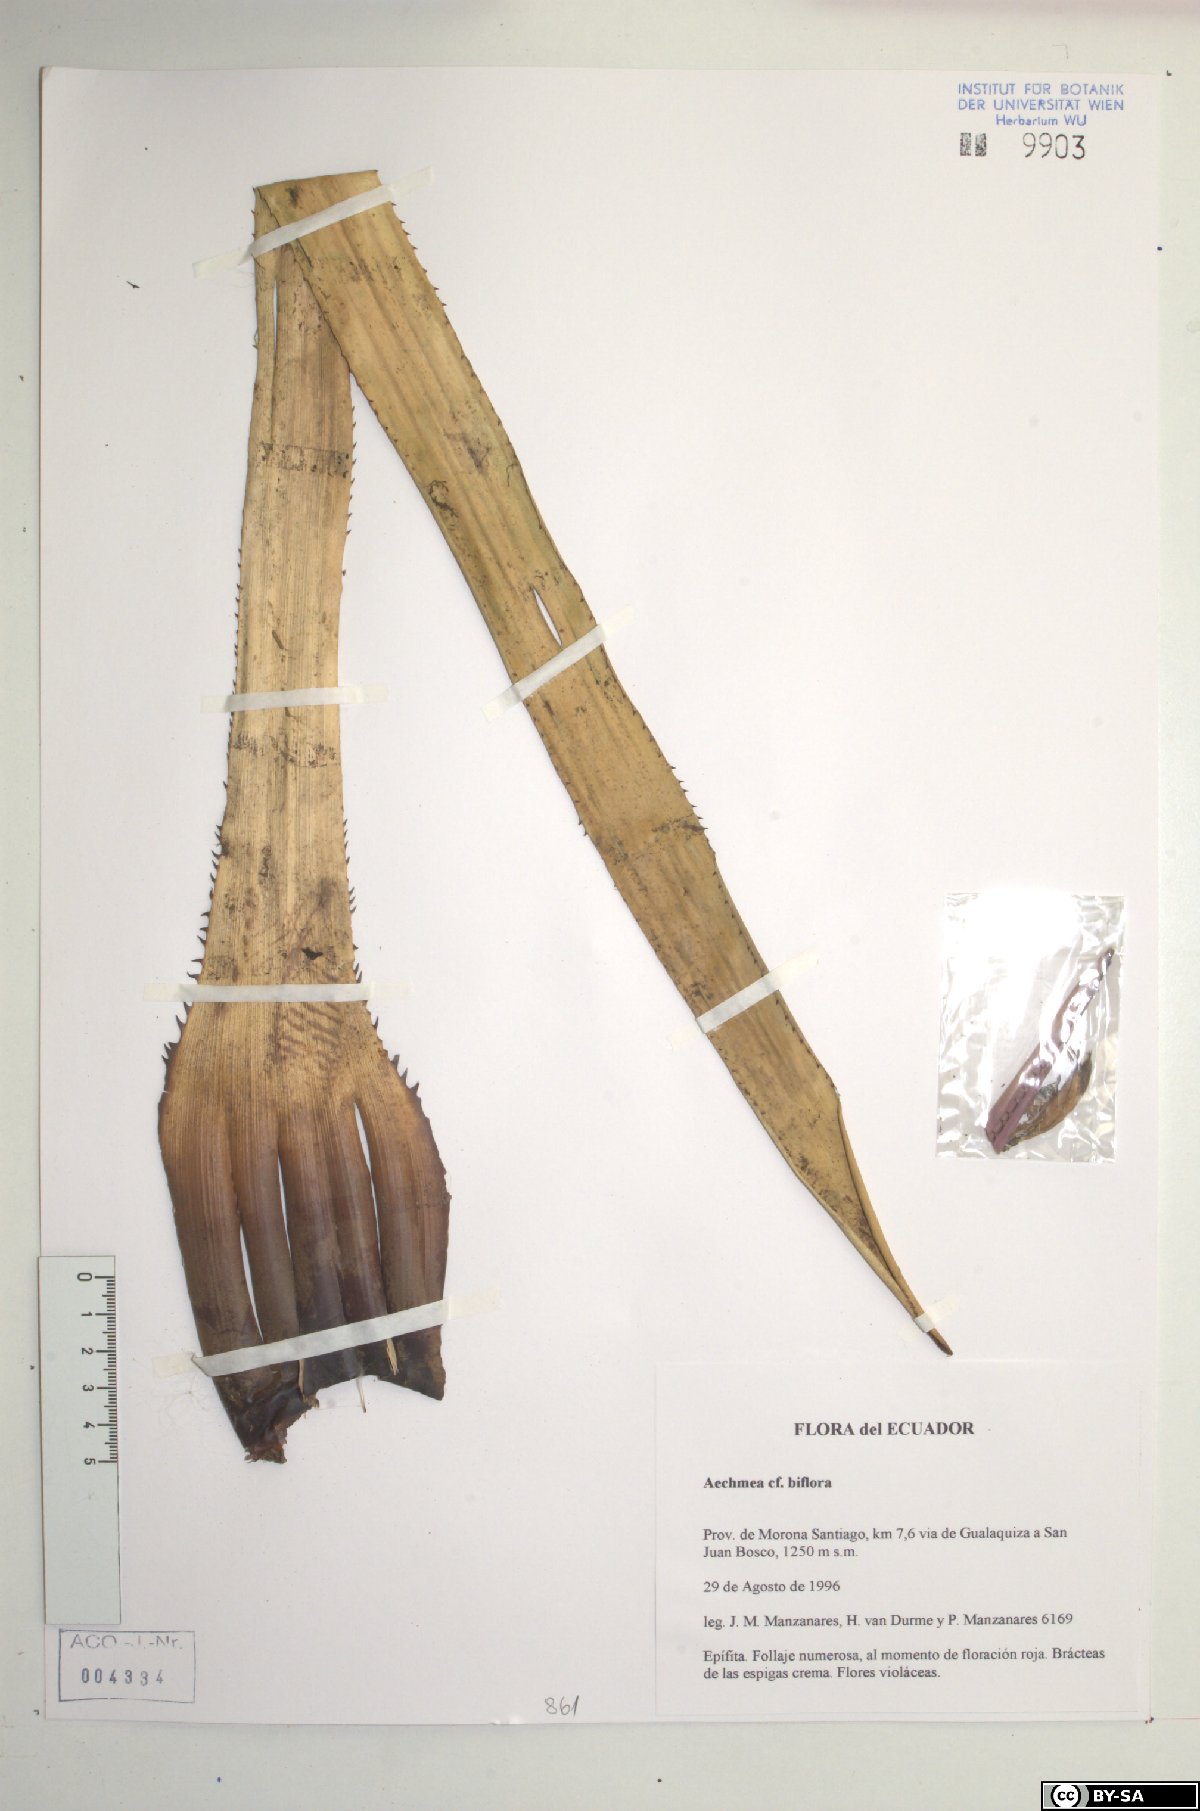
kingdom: Plantae
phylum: Tracheophyta
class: Liliopsida
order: Poales
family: Bromeliaceae
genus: Aechmea
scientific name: Aechmea biflora
